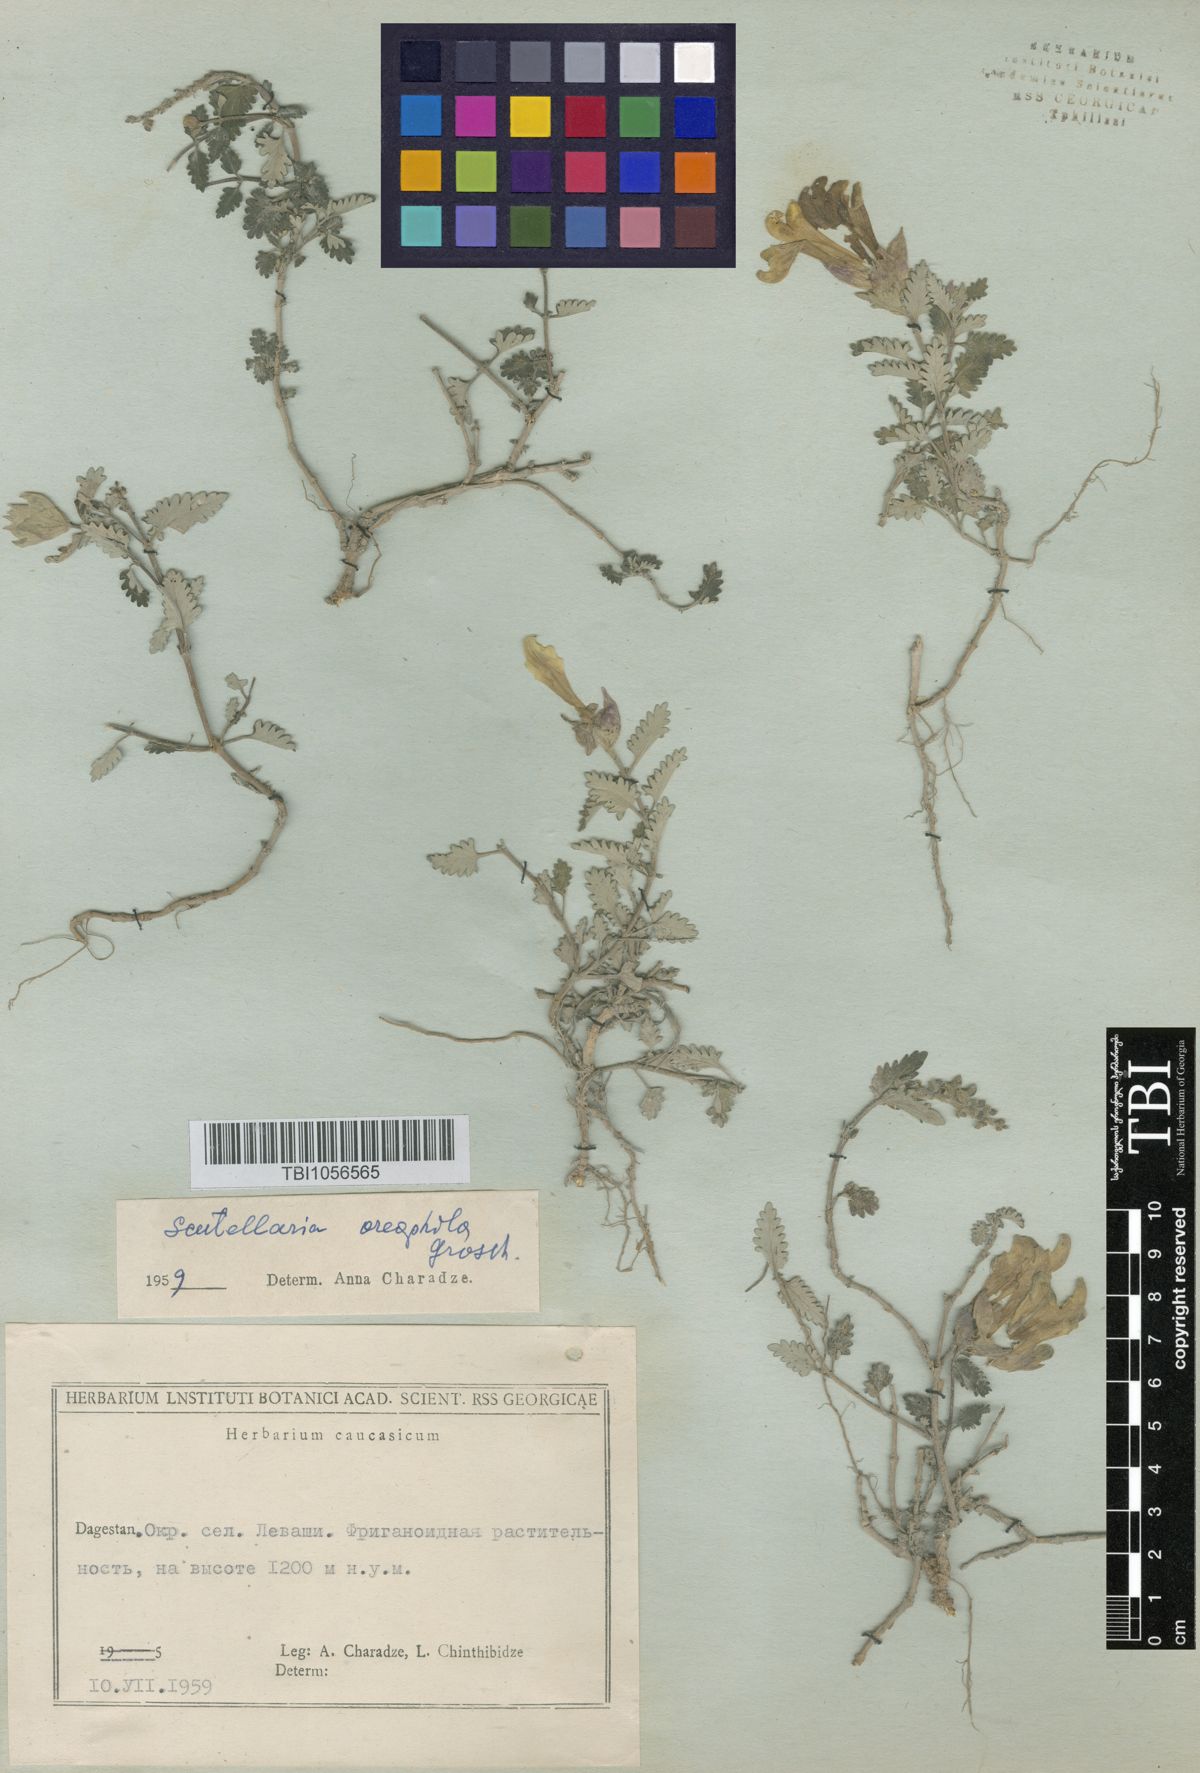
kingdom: Plantae
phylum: Tracheophyta
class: Magnoliopsida
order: Lamiales
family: Lamiaceae
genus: Scutellaria
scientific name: Scutellaria oreophila
